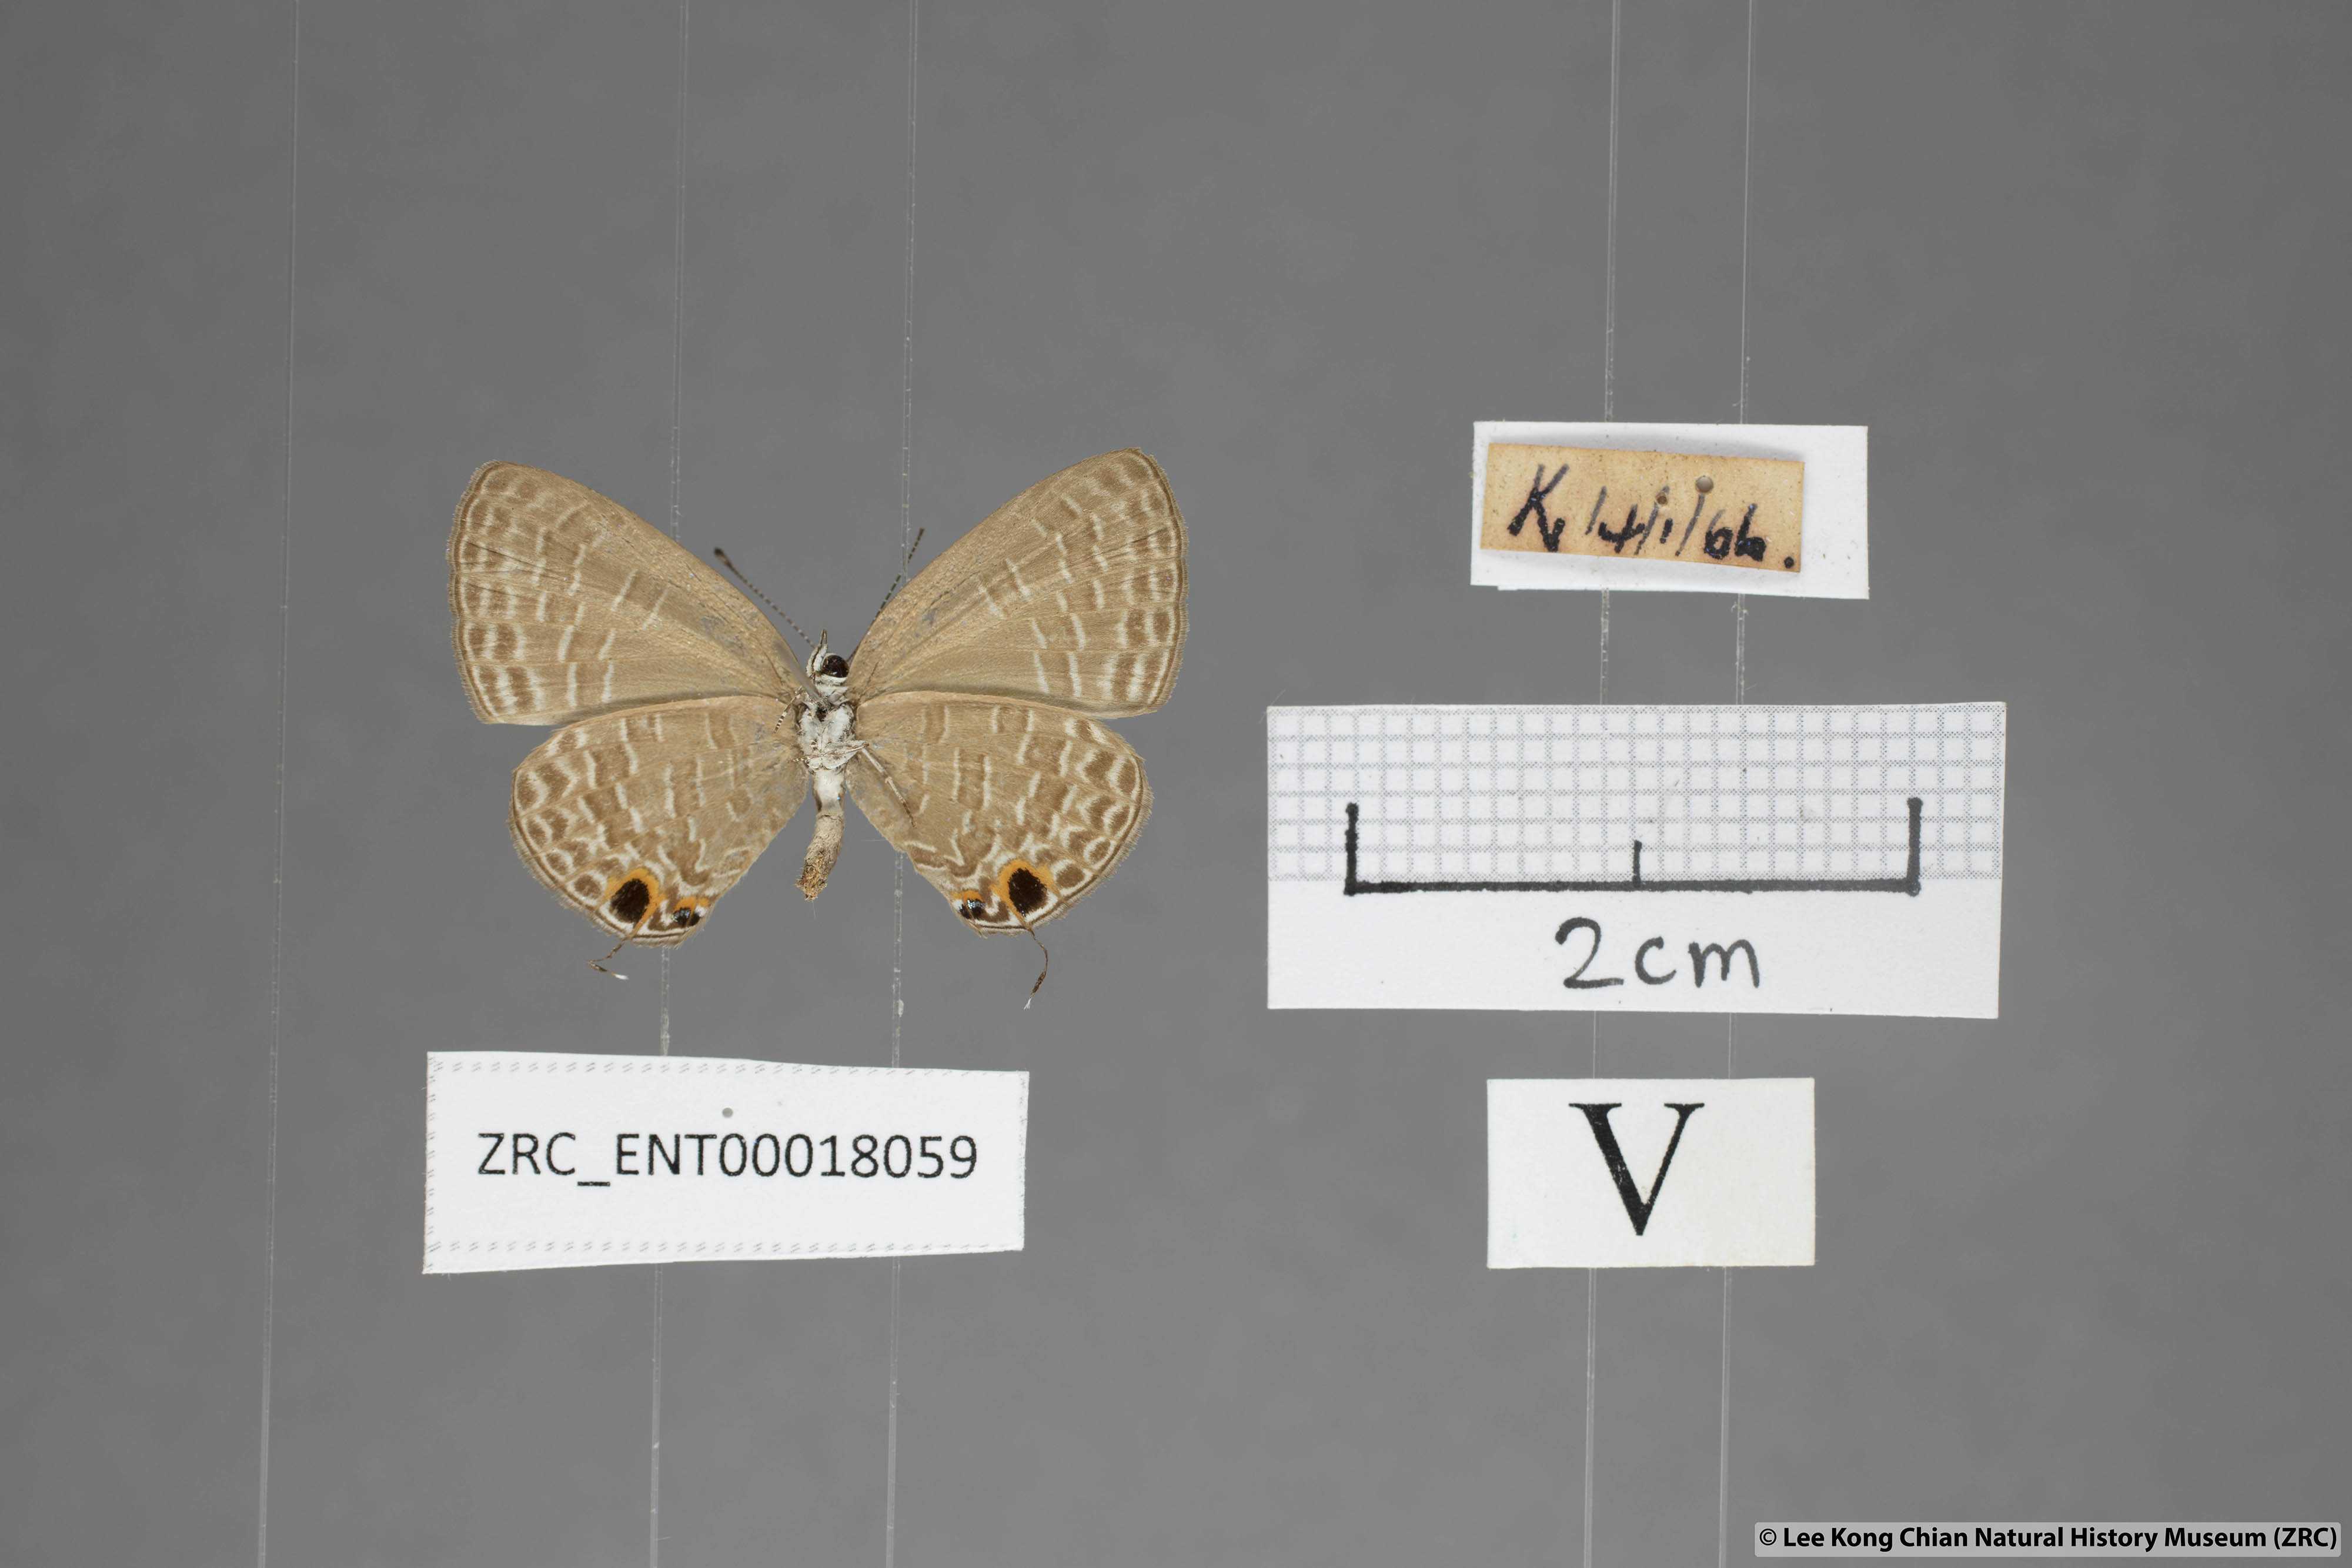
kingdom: Animalia
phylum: Arthropoda
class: Insecta
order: Lepidoptera
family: Lycaenidae
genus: Jamides
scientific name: Jamides bochus
